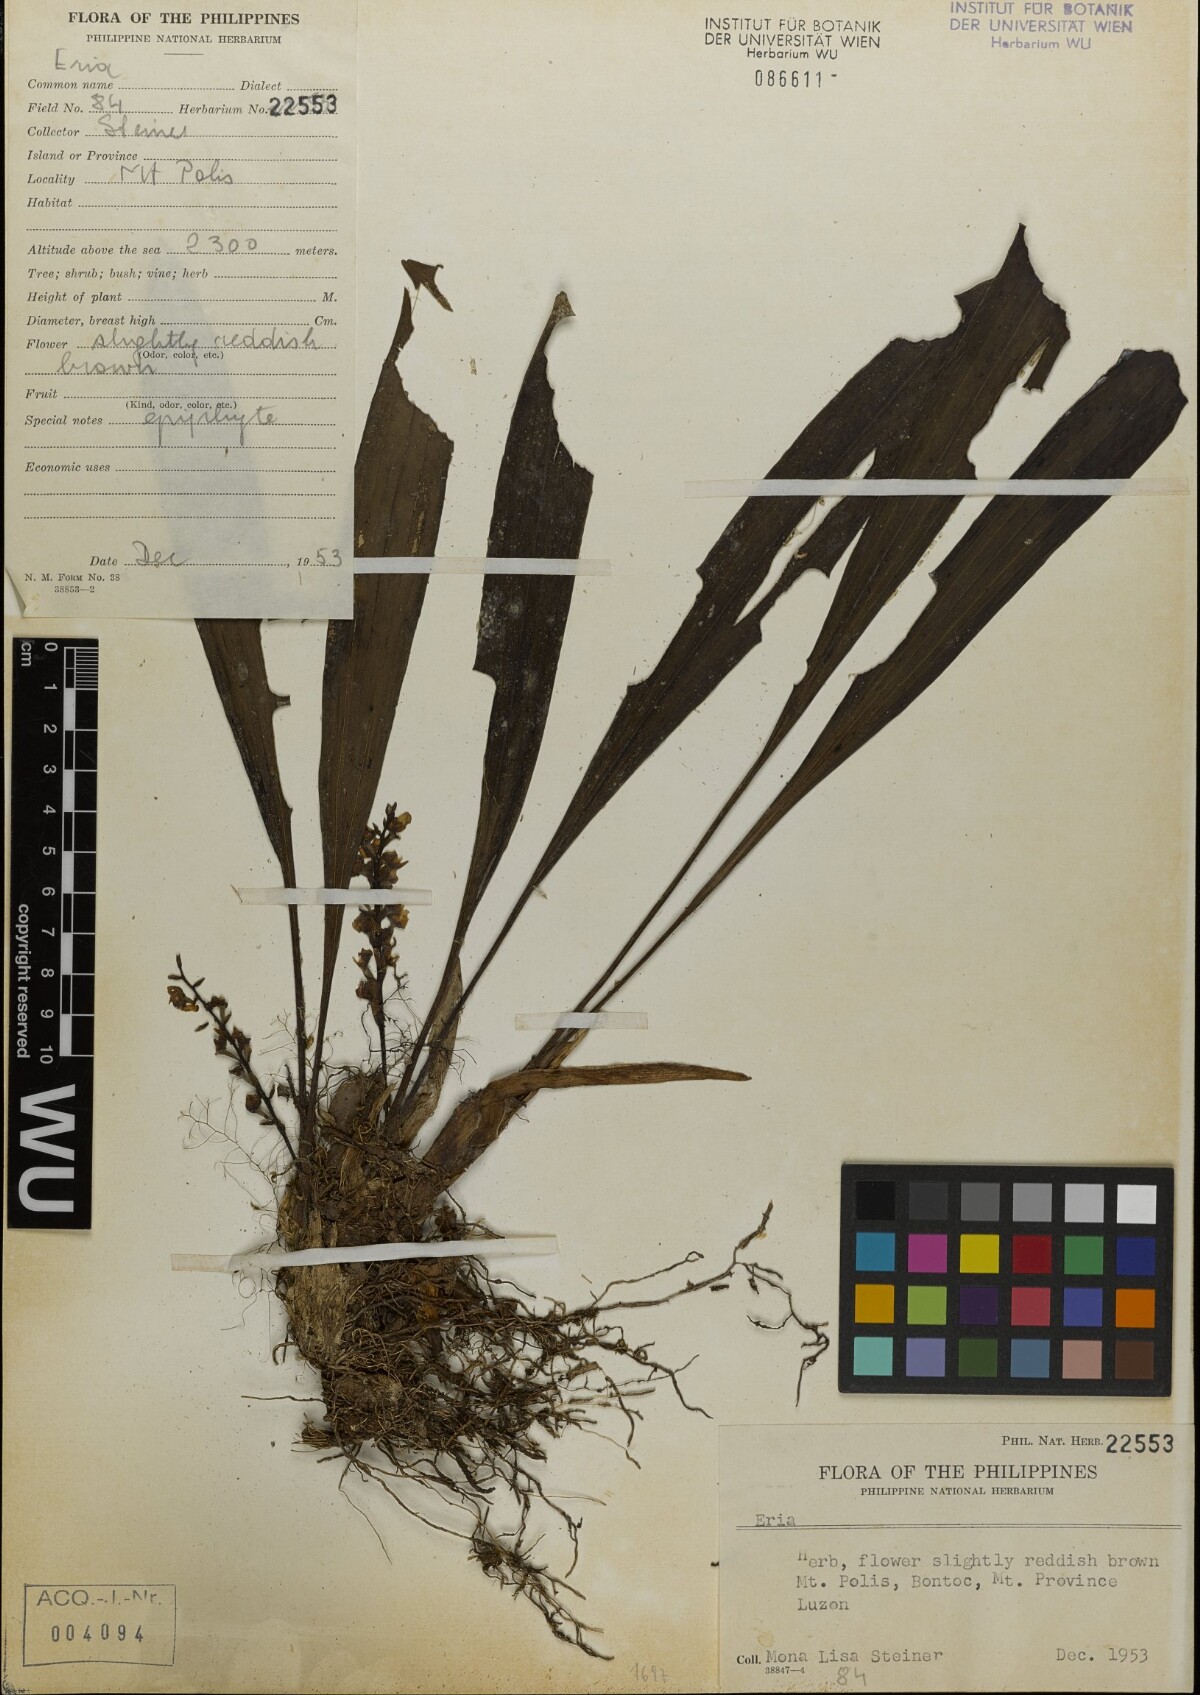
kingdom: Plantae
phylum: Tracheophyta
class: Liliopsida
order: Asparagales
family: Orchidaceae
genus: Eria
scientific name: Eria
